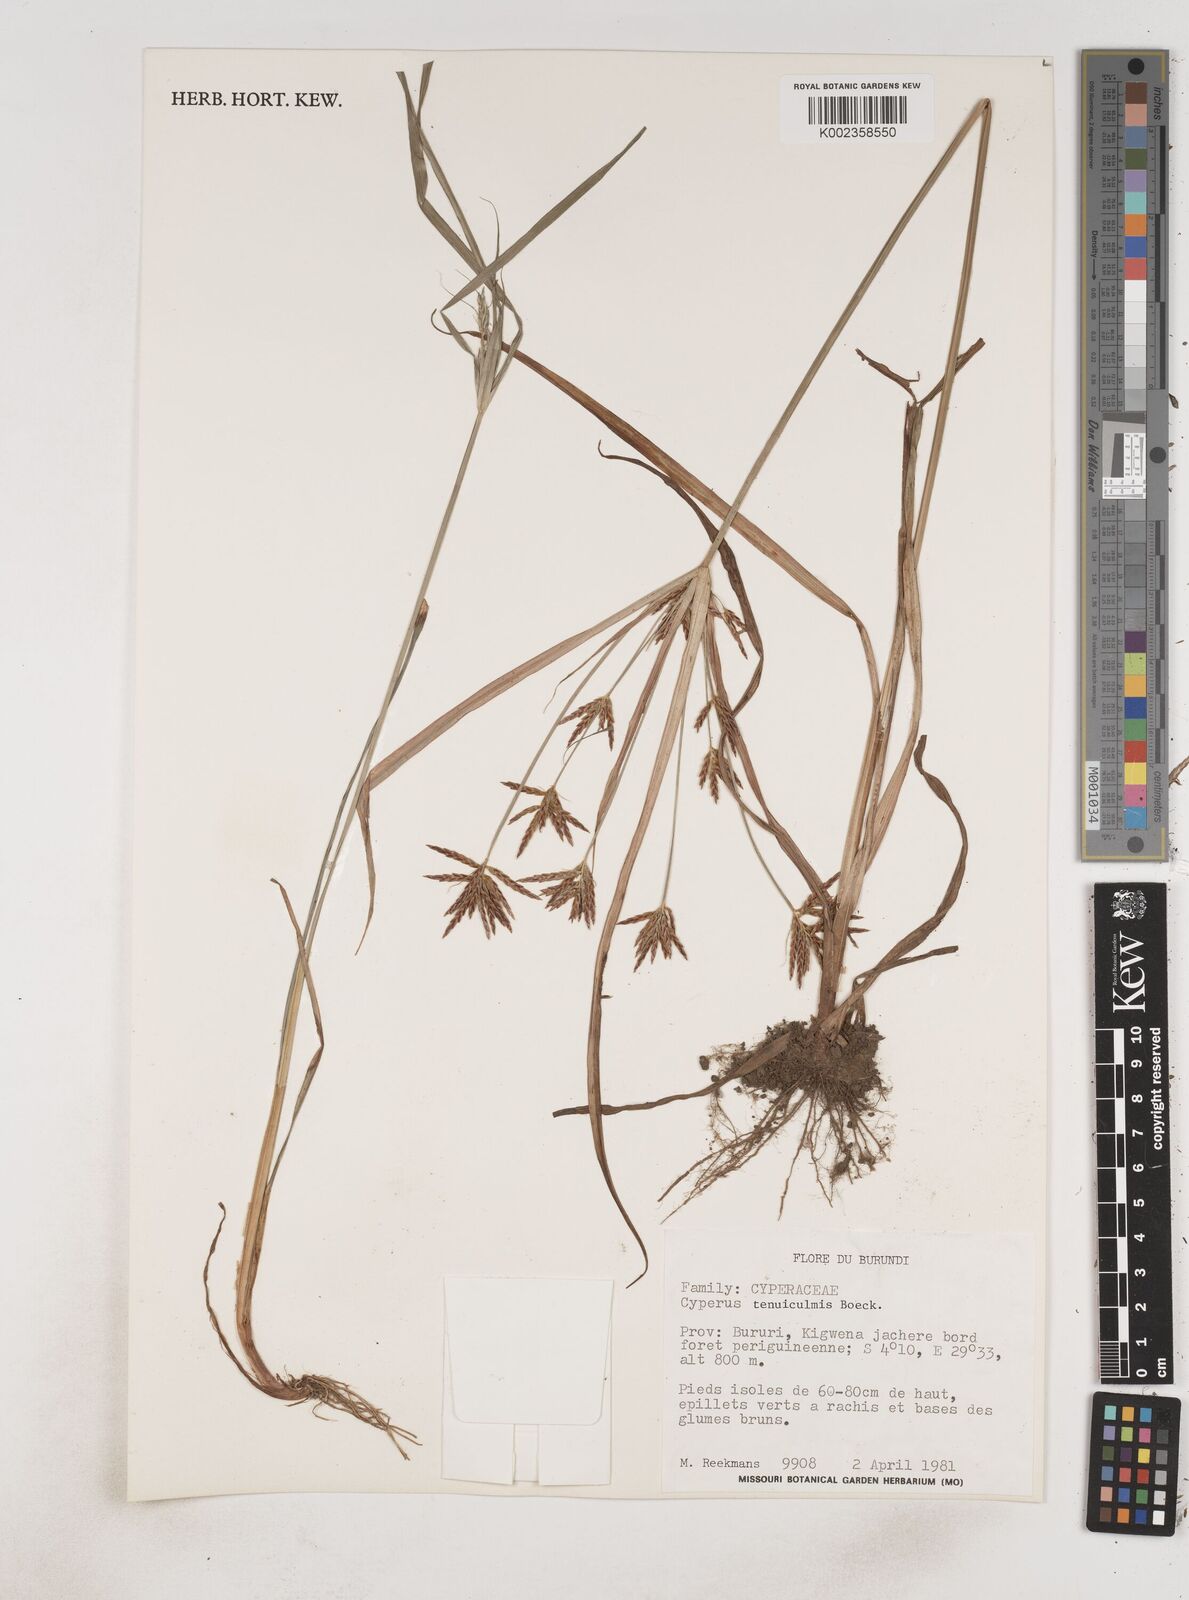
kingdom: Plantae
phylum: Tracheophyta
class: Liliopsida
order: Poales
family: Cyperaceae
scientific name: Cyperaceae
